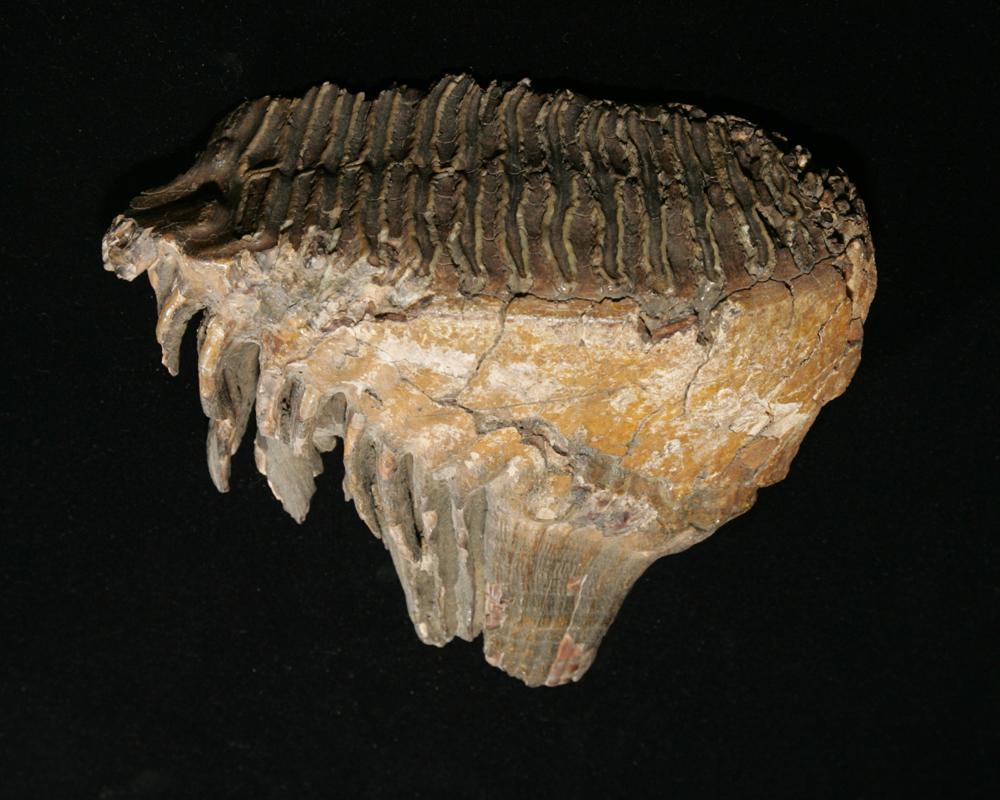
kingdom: Animalia
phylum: Chordata
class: Mammalia
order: Proboscidea
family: Elephantidae
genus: Mammuthus
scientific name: Mammuthus primigenius
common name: Wooly mammoth
